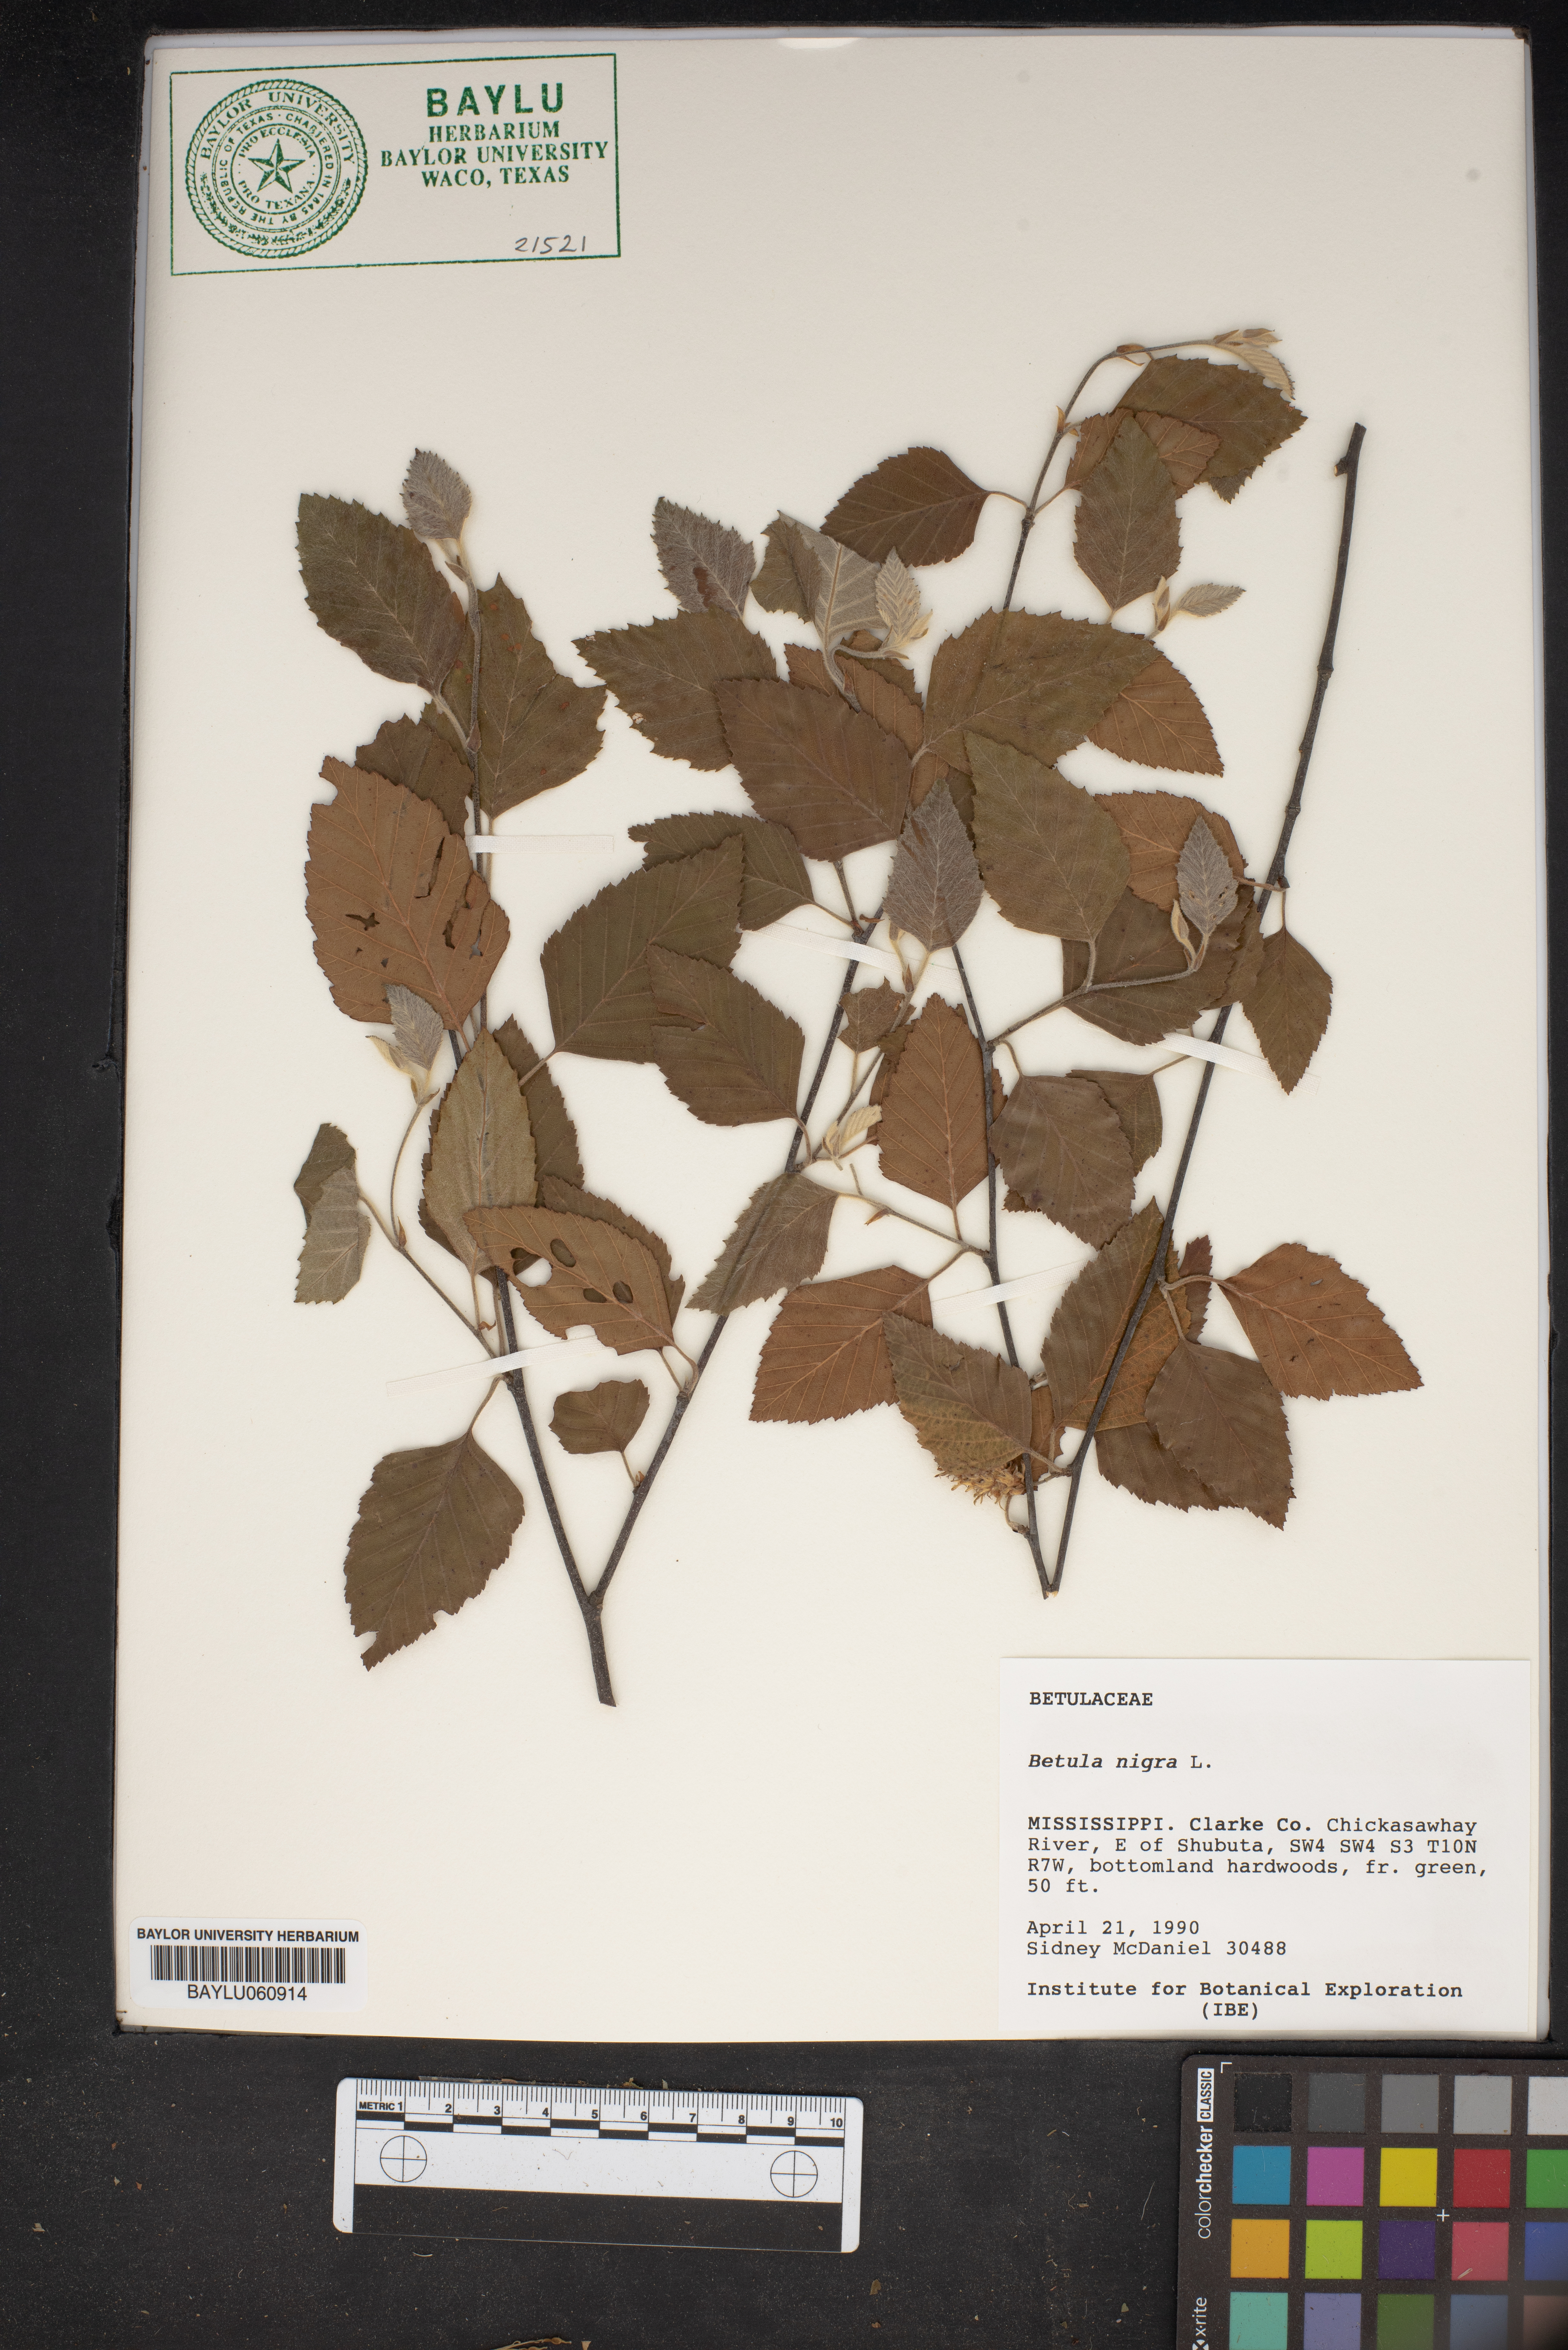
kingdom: Plantae
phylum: Tracheophyta
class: Magnoliopsida
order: Fagales
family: Betulaceae
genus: Betula
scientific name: Betula nigra
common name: Black birch
